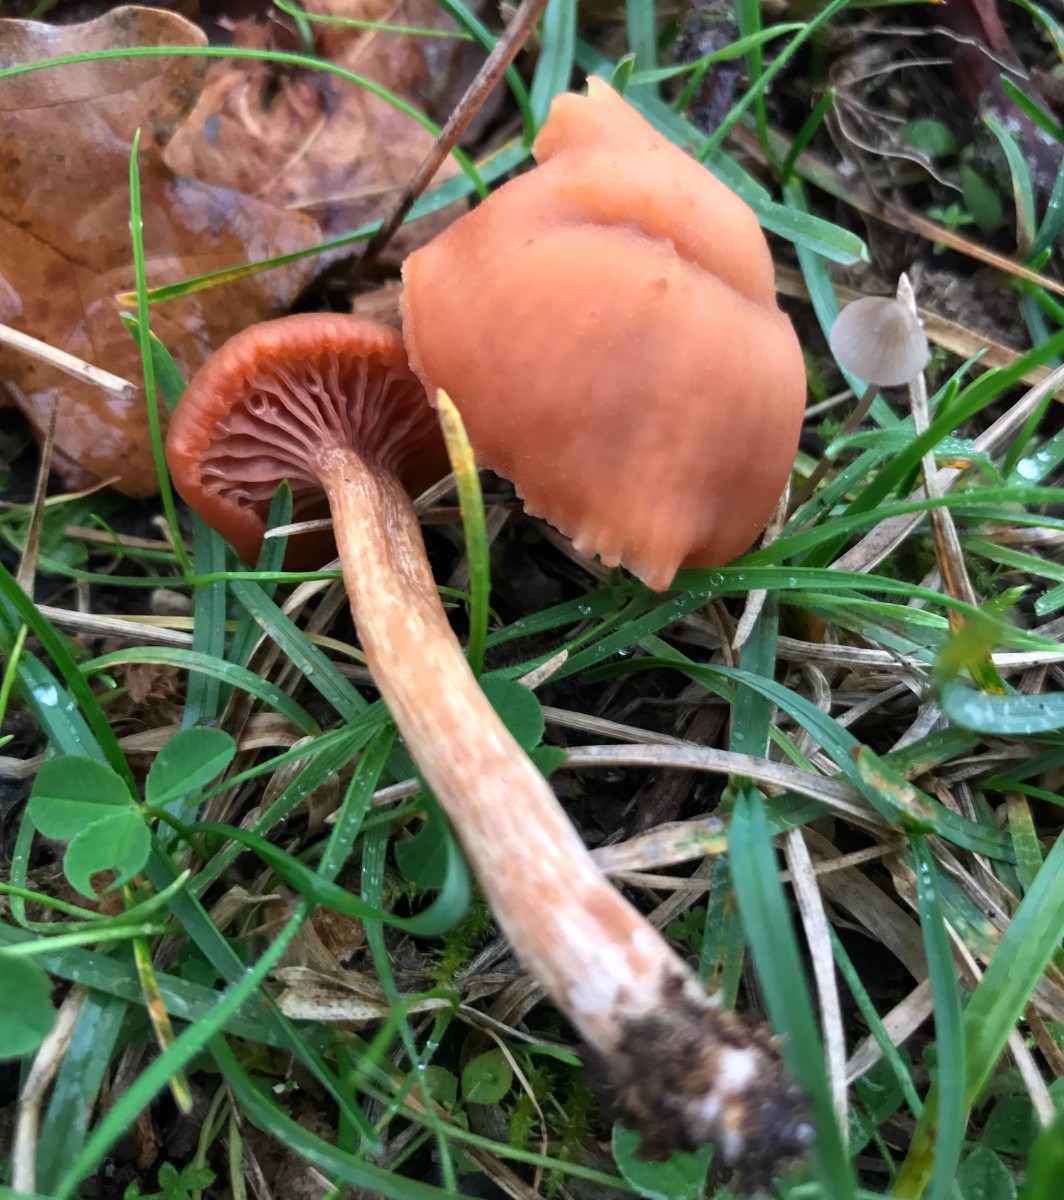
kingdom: Fungi
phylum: Basidiomycota
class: Agaricomycetes
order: Agaricales
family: Hydnangiaceae
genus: Laccaria
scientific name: Laccaria laccata
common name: rød ametysthat
